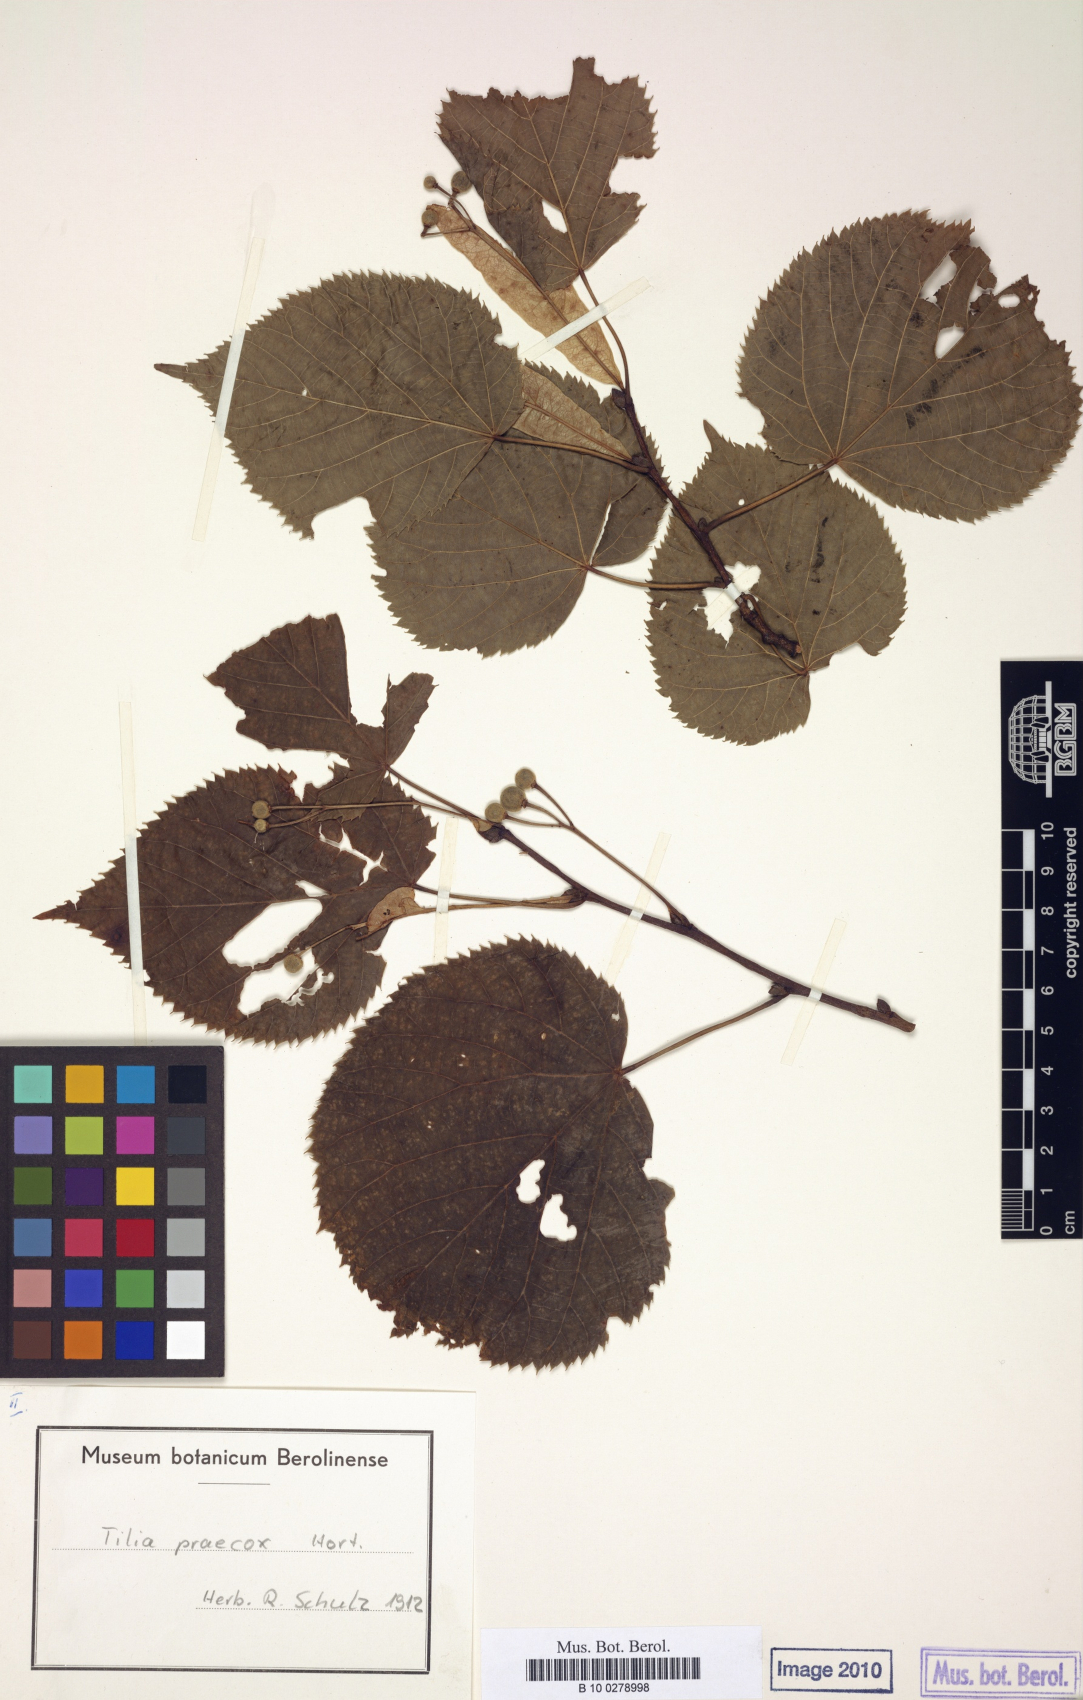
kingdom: Plantae
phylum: Tracheophyta
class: Magnoliopsida
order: Malvales
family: Malvaceae
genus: Tilia
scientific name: Tilia flaccida
